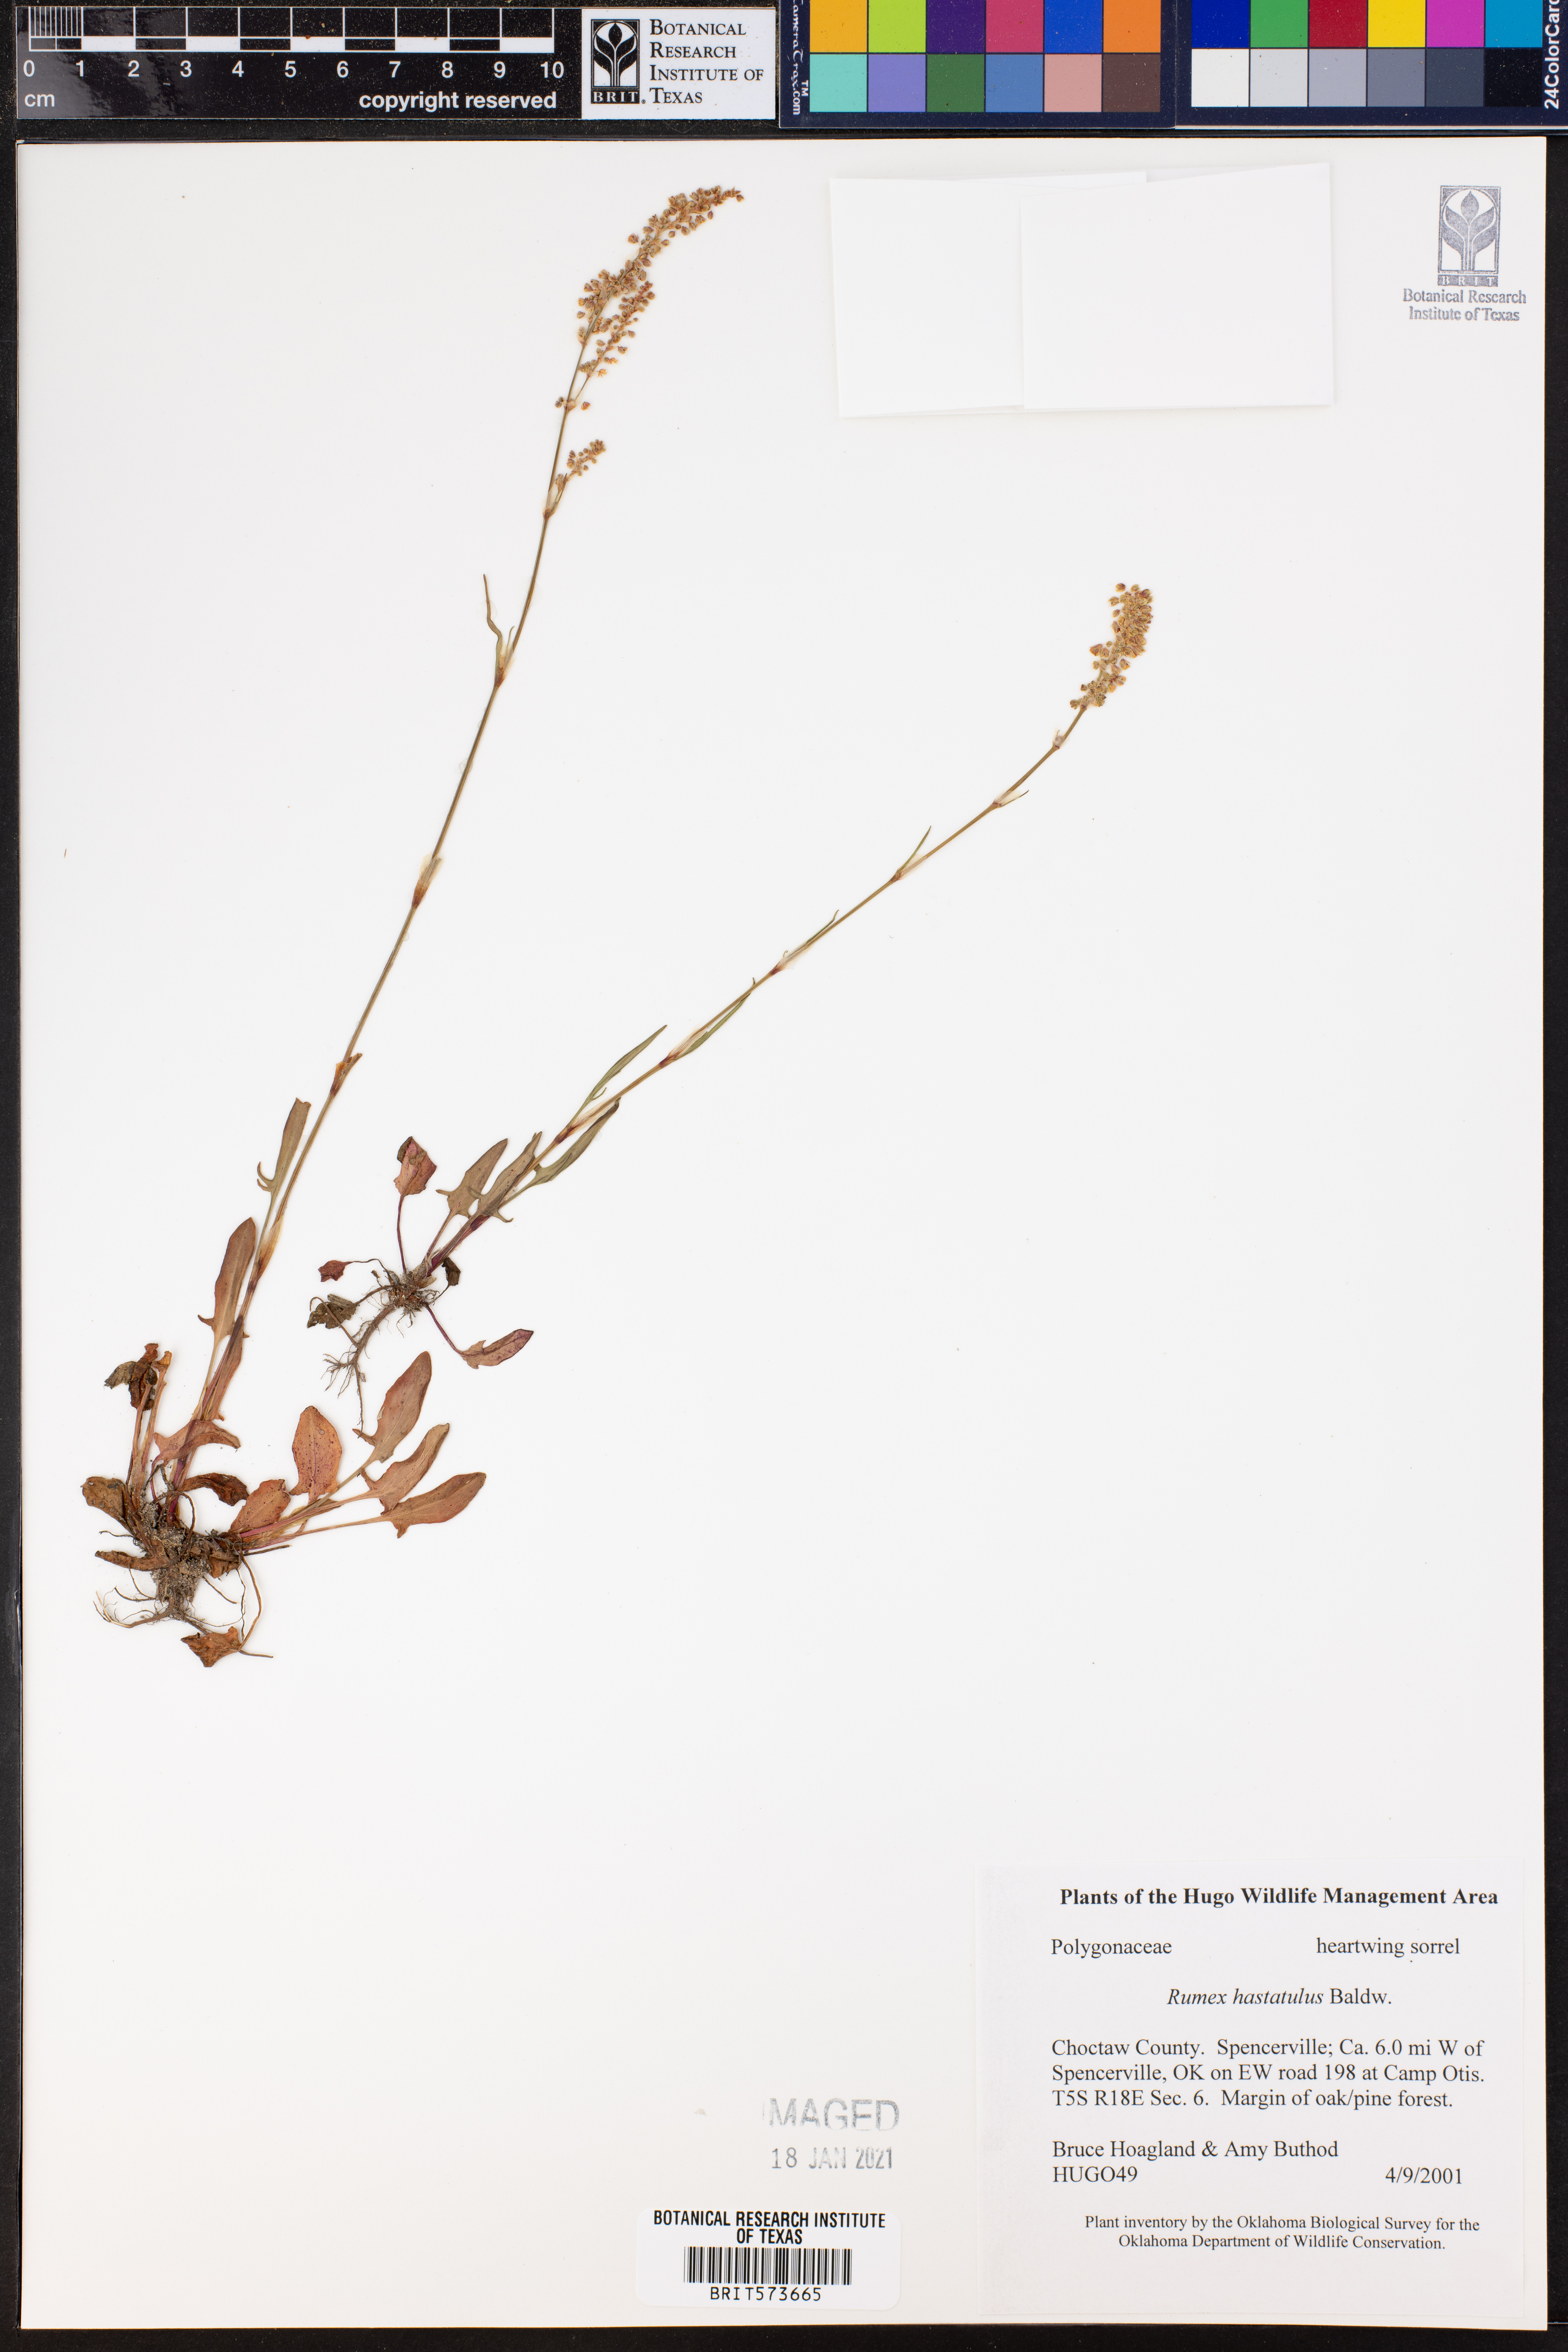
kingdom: Plantae
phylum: Tracheophyta
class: Magnoliopsida
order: Caryophyllales
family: Polygonaceae
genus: Rumex
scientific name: Rumex hastatulus
